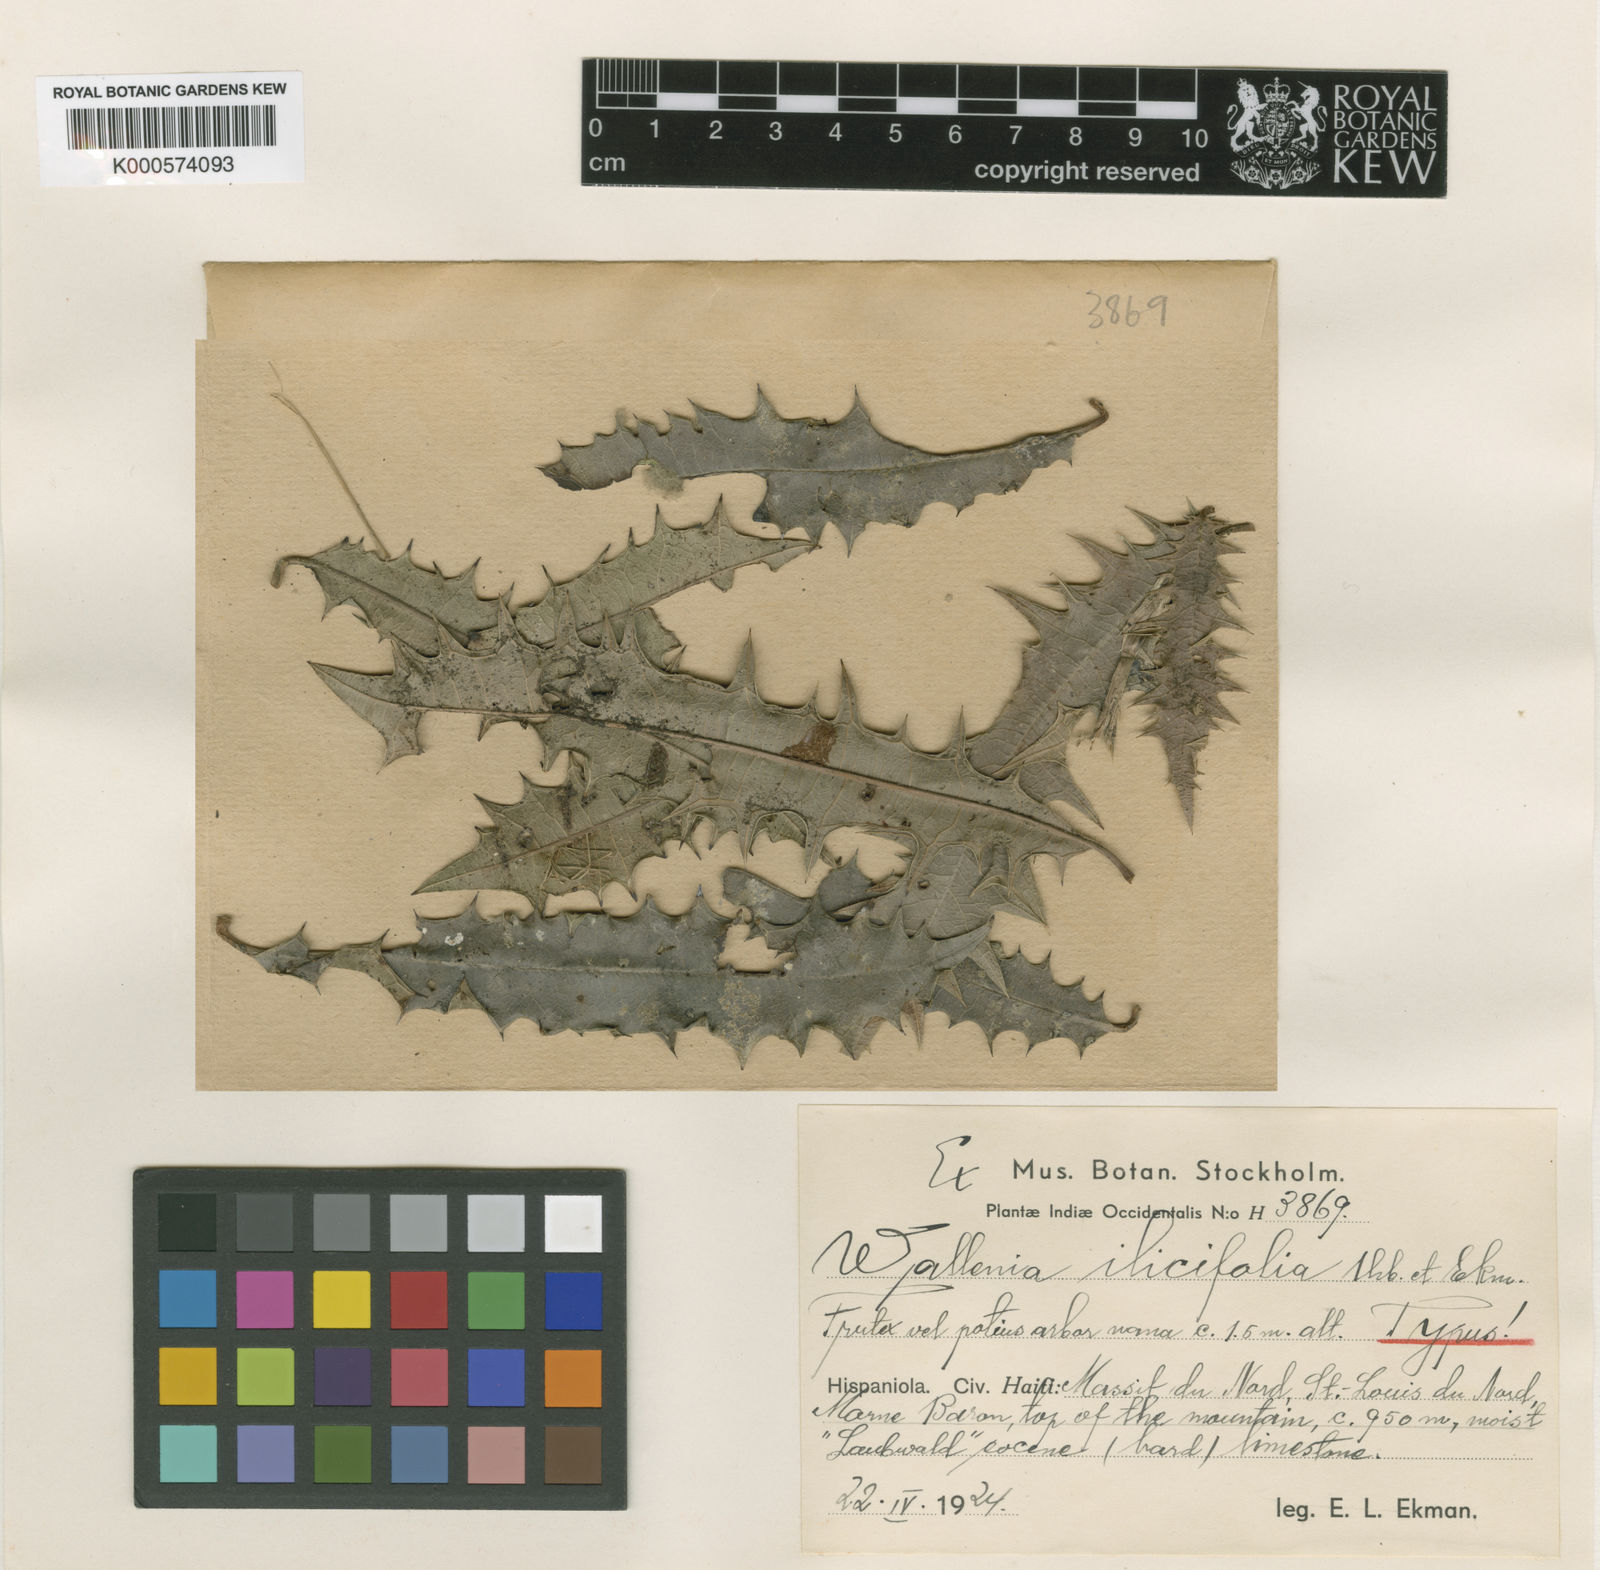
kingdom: Plantae
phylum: Tracheophyta
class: Magnoliopsida
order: Ericales
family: Primulaceae
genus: Wallenia
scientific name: Wallenia ilicifolia
